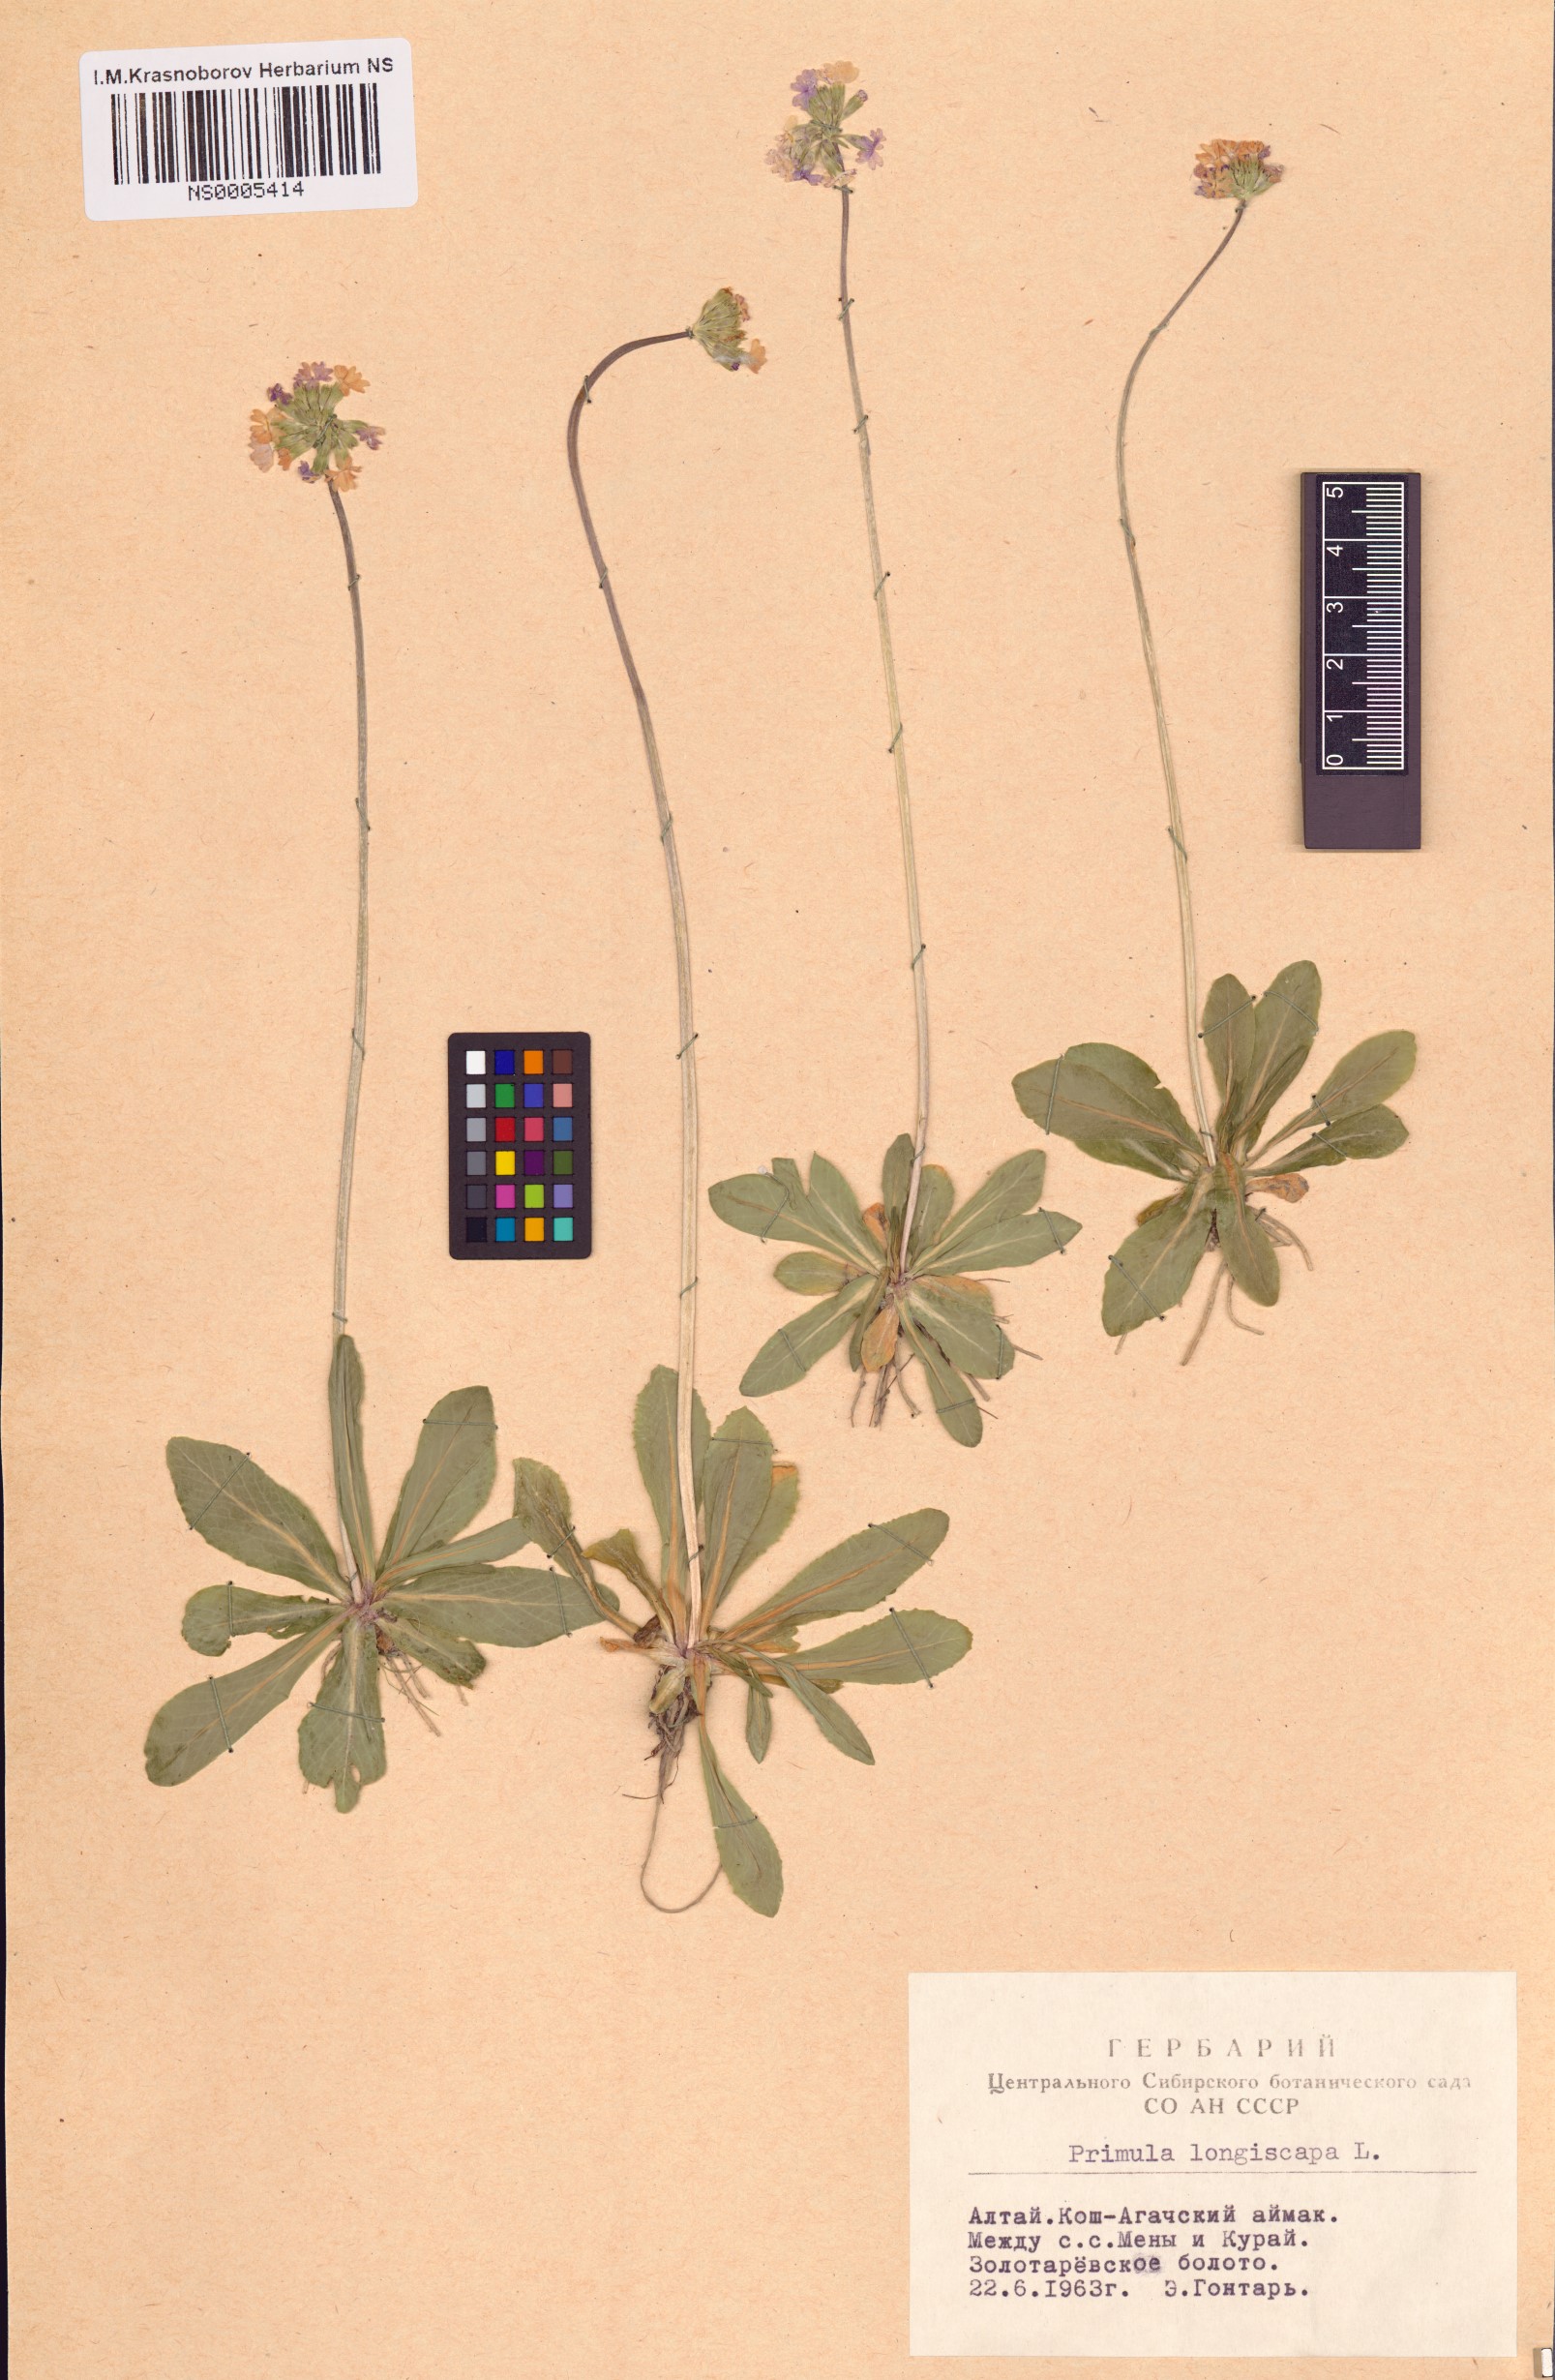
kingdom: Plantae
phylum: Tracheophyta
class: Magnoliopsida
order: Ericales
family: Primulaceae
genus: Primula
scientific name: Primula longiscapa
